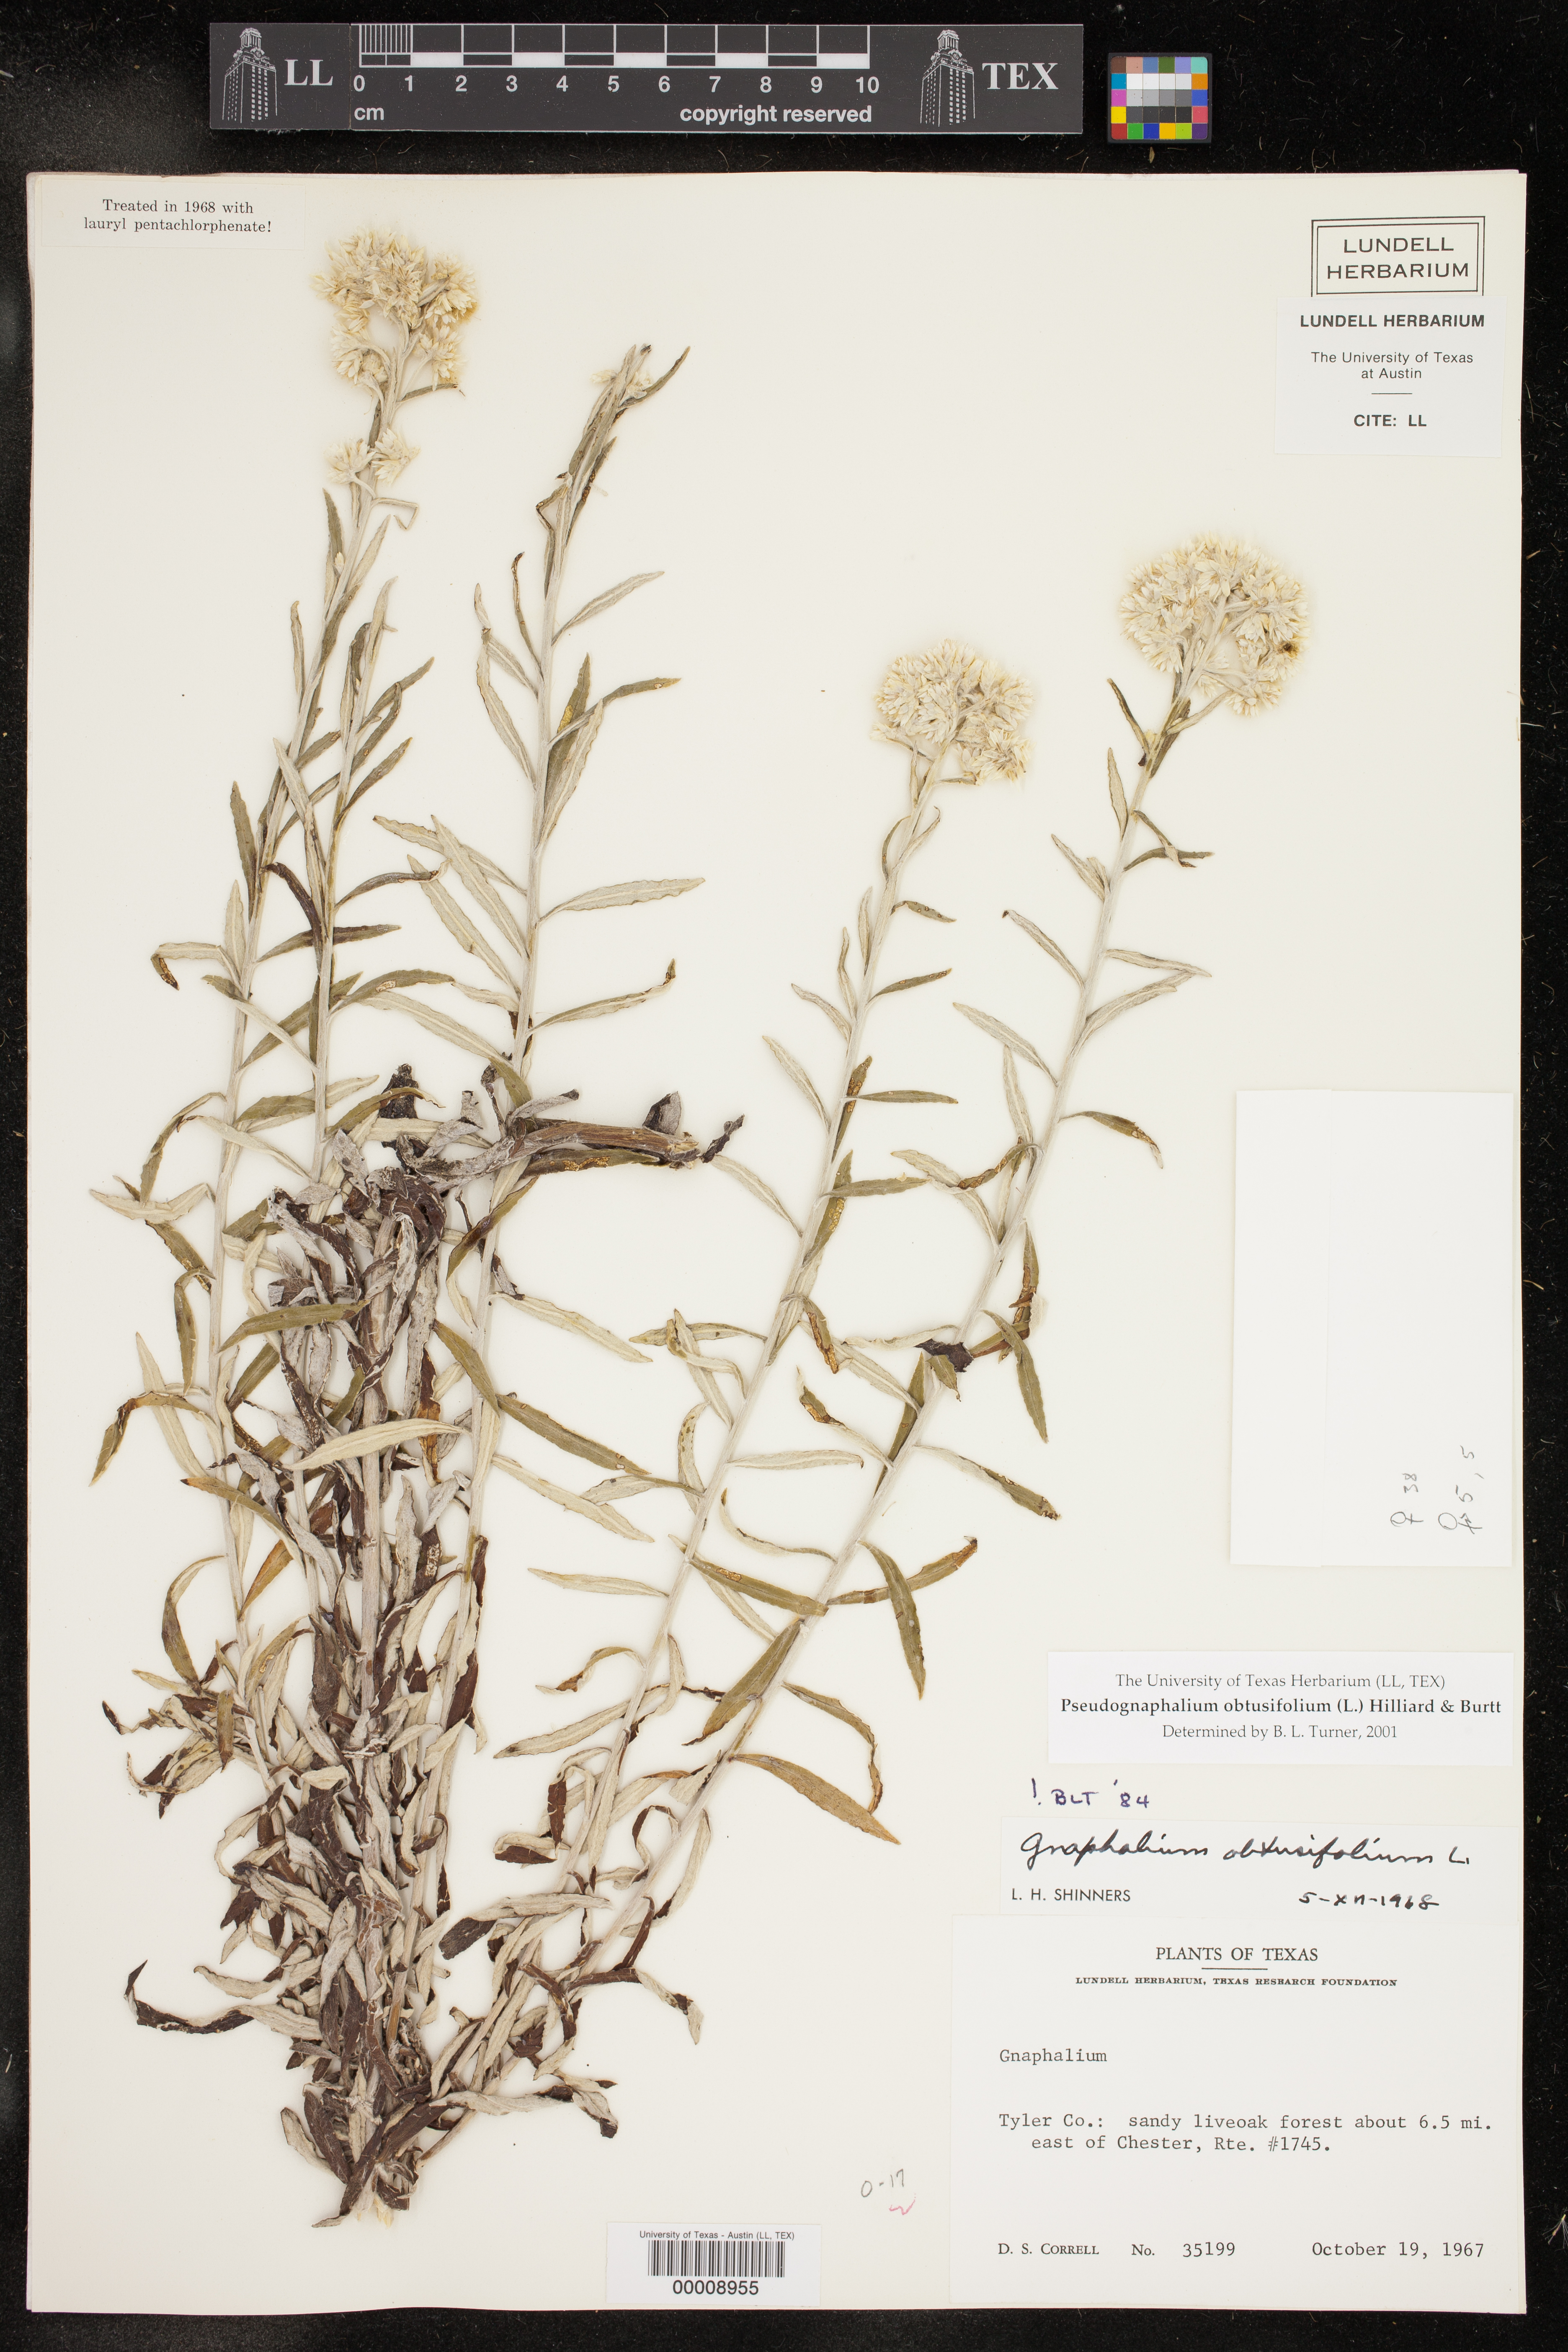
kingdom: Plantae
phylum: Tracheophyta
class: Magnoliopsida
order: Asterales
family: Asteraceae
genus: Pseudognaphalium
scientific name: Pseudognaphalium obtusifolium
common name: Eastern rabbit-tobacco
